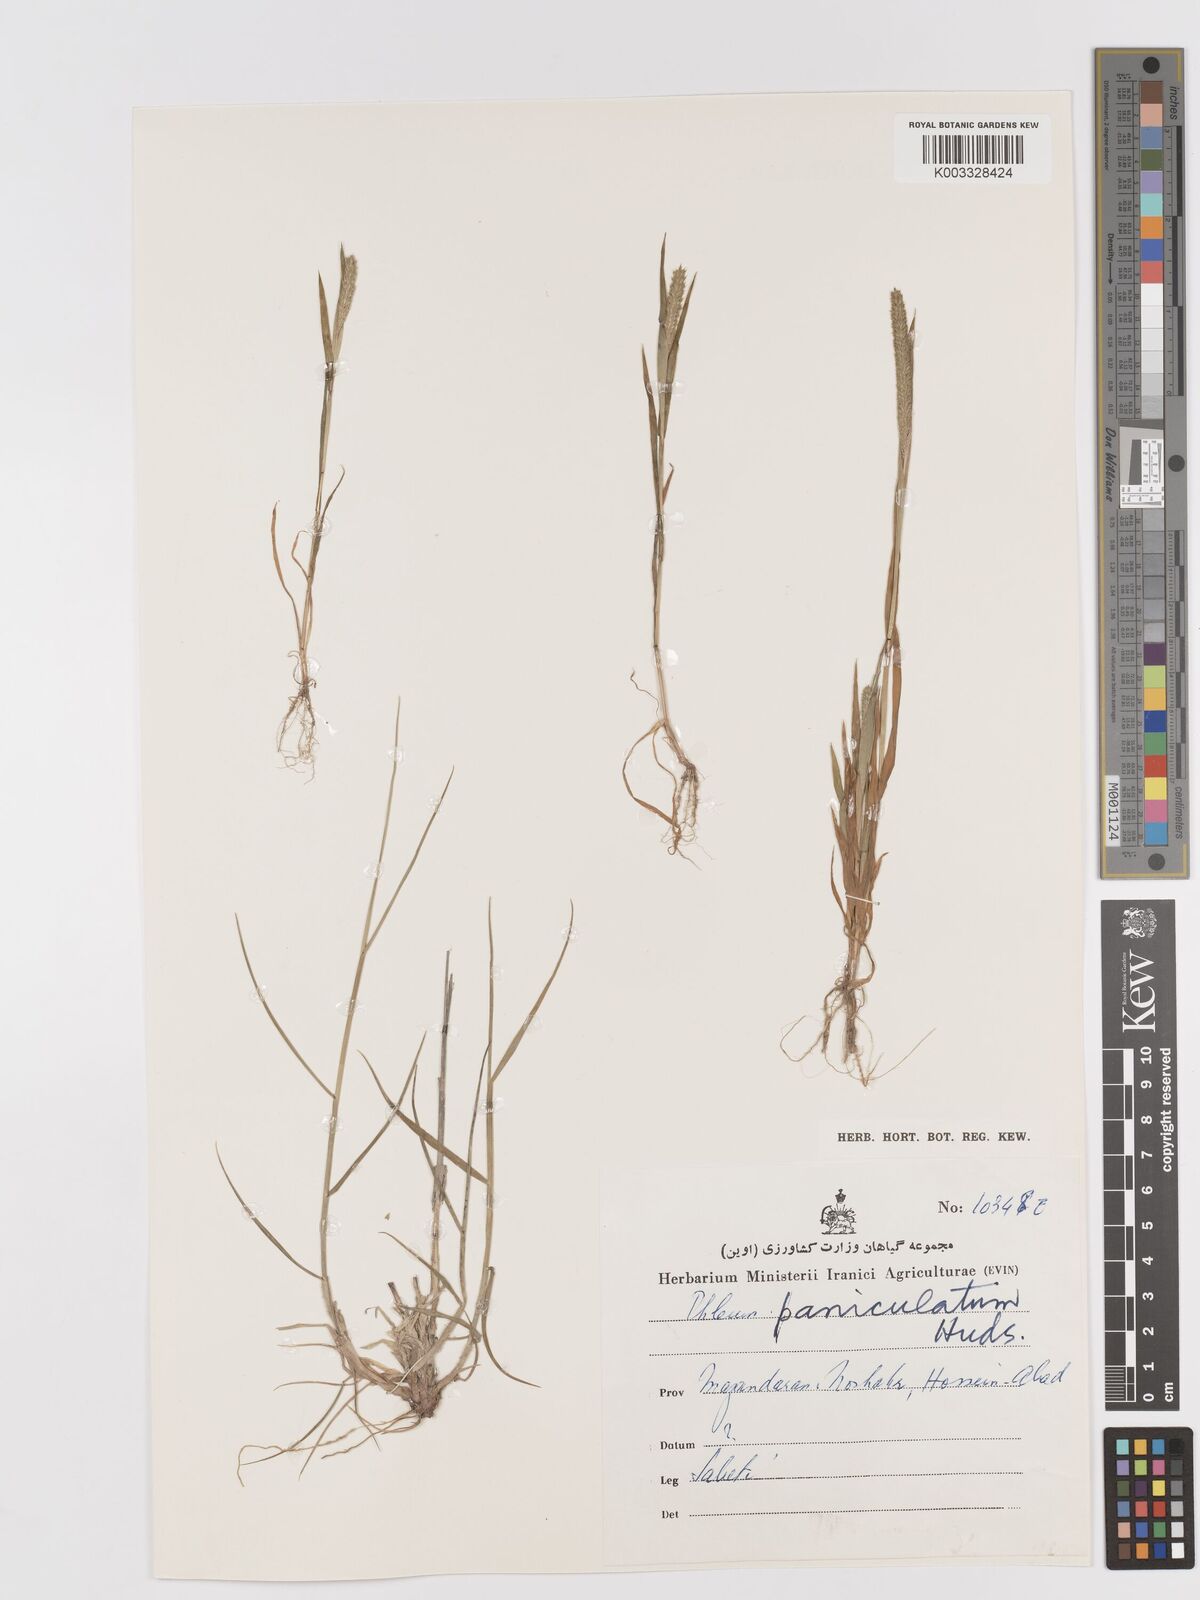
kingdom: Plantae
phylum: Tracheophyta
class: Liliopsida
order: Poales
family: Poaceae
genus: Phleum
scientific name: Phleum paniculatum
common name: British timothy
